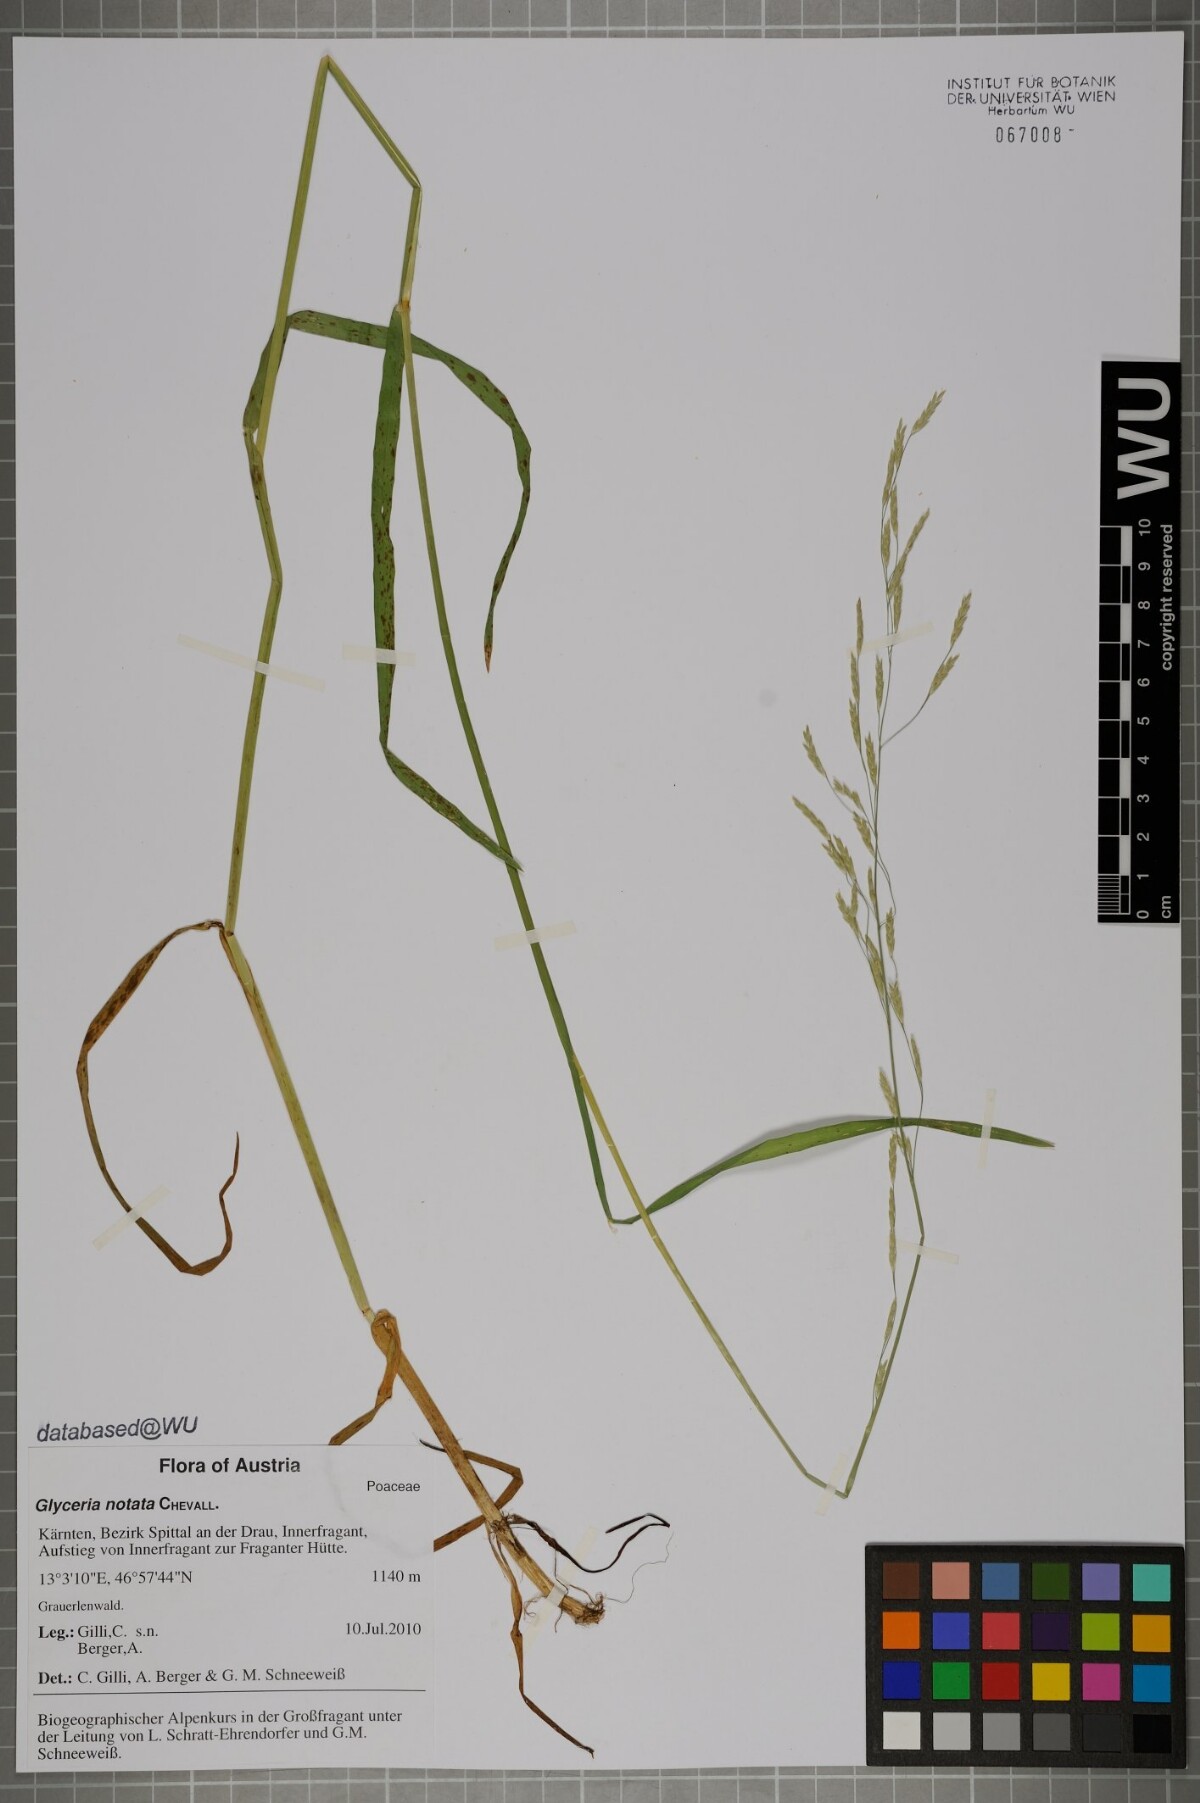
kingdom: Plantae
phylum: Tracheophyta
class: Liliopsida
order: Poales
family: Poaceae
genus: Glyceria
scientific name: Glyceria notata
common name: Plicate sweet-grass
